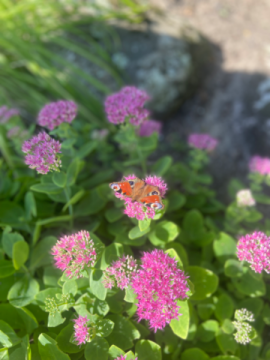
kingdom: Animalia
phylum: Arthropoda
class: Insecta
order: Lepidoptera
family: Nymphalidae
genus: Aglais
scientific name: Aglais io
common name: European Peacock
